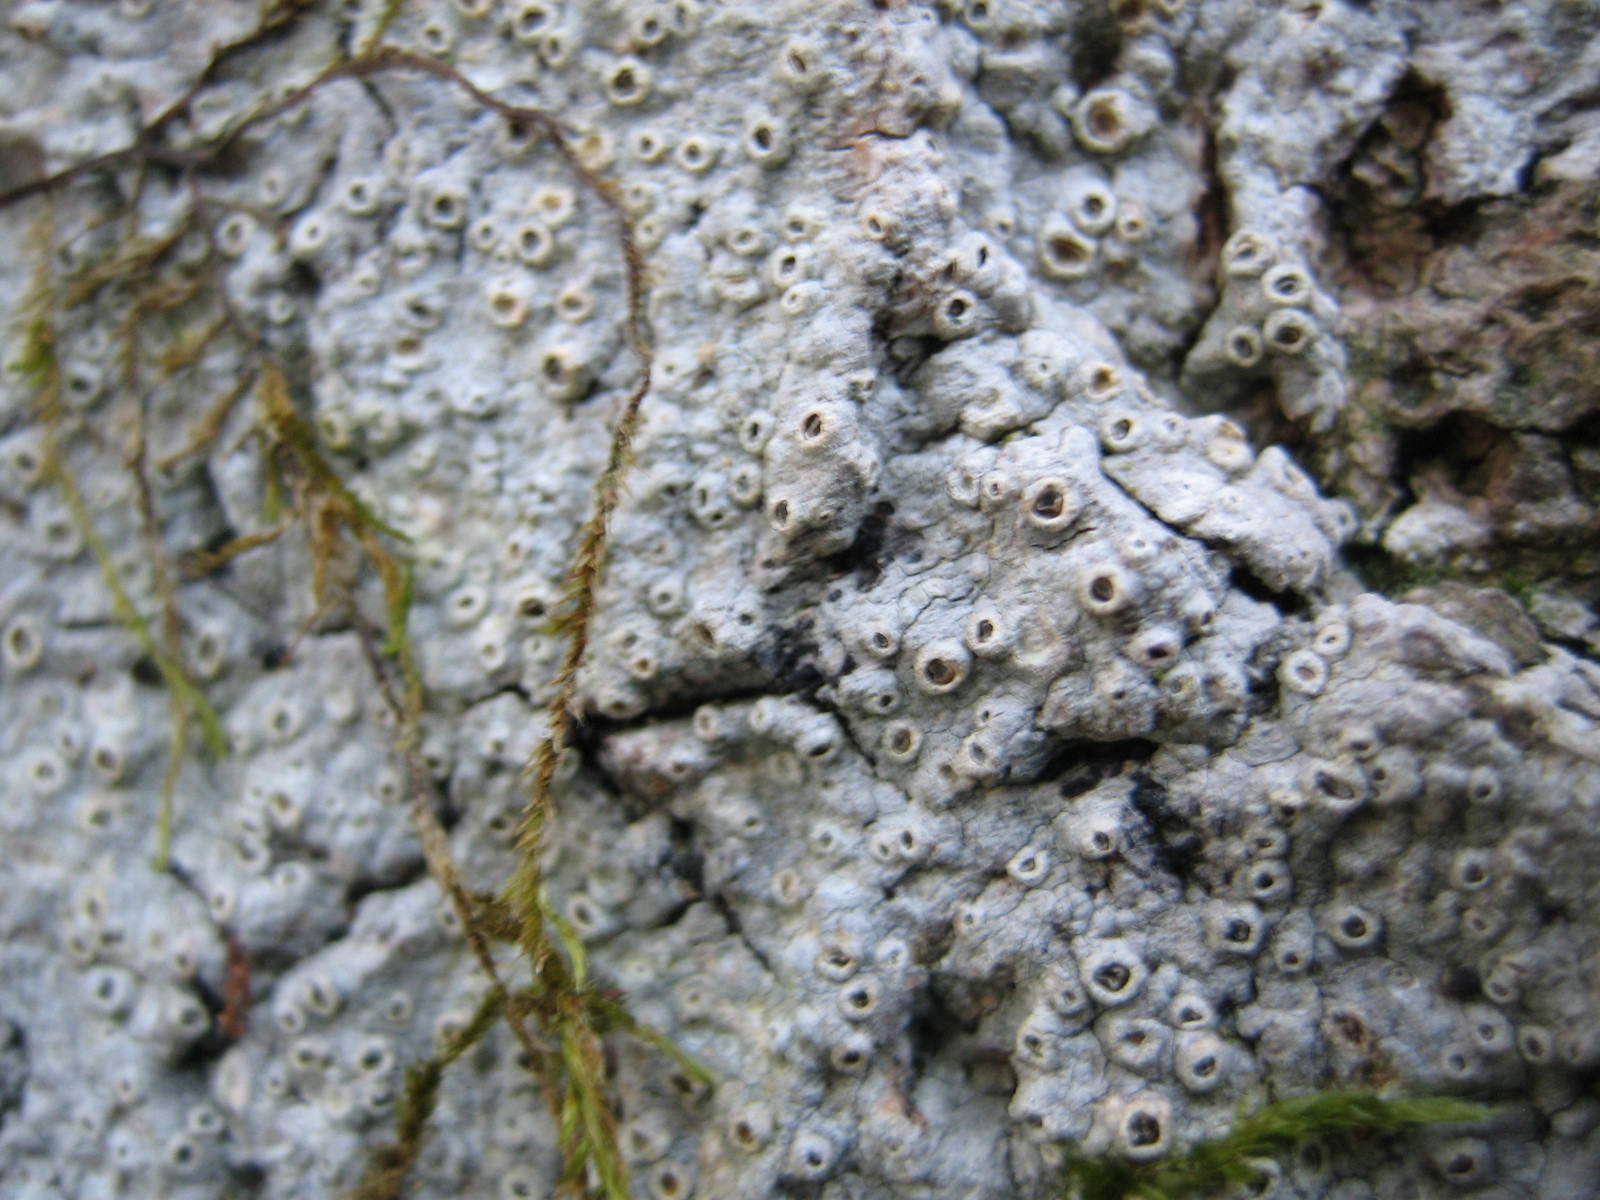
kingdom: Fungi
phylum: Ascomycota
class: Lecanoromycetes
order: Ostropales
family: Graphidaceae
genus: Thelotrema
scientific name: Thelotrema lepadinum
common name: almindelig slørkantlav
